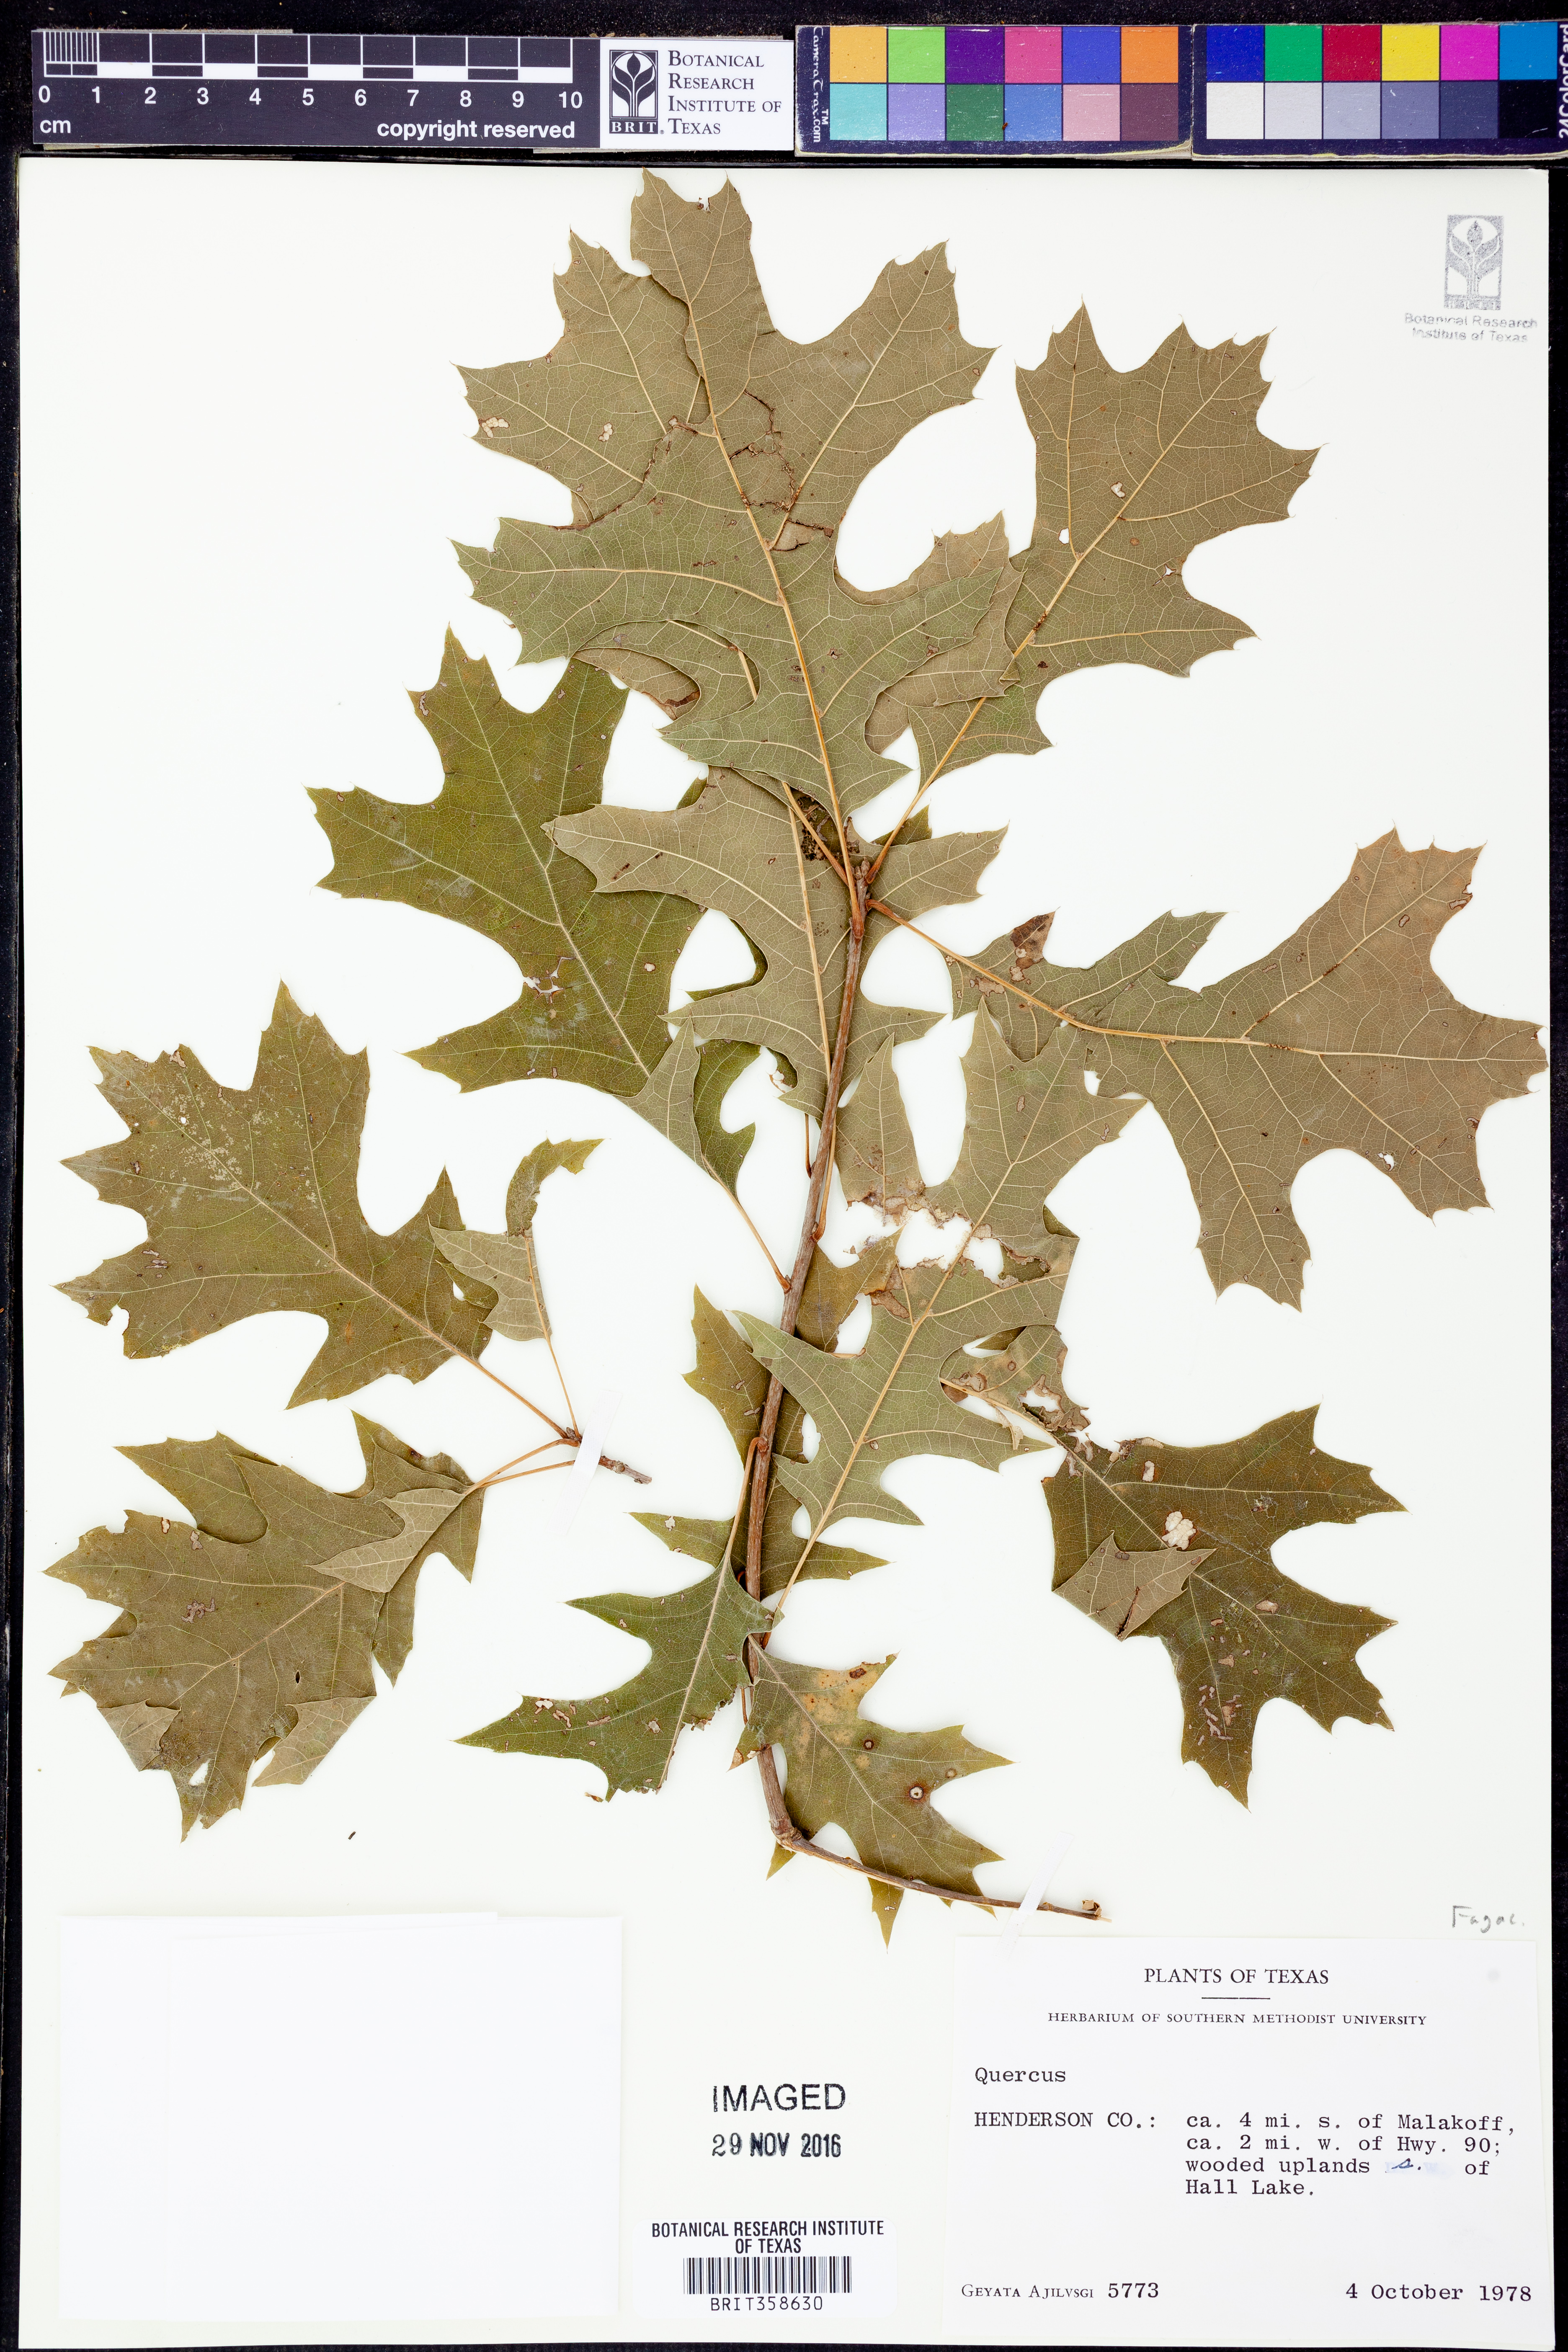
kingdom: Plantae
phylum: Tracheophyta
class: Magnoliopsida
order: Fagales
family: Fagaceae
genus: Quercus
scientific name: Quercus
